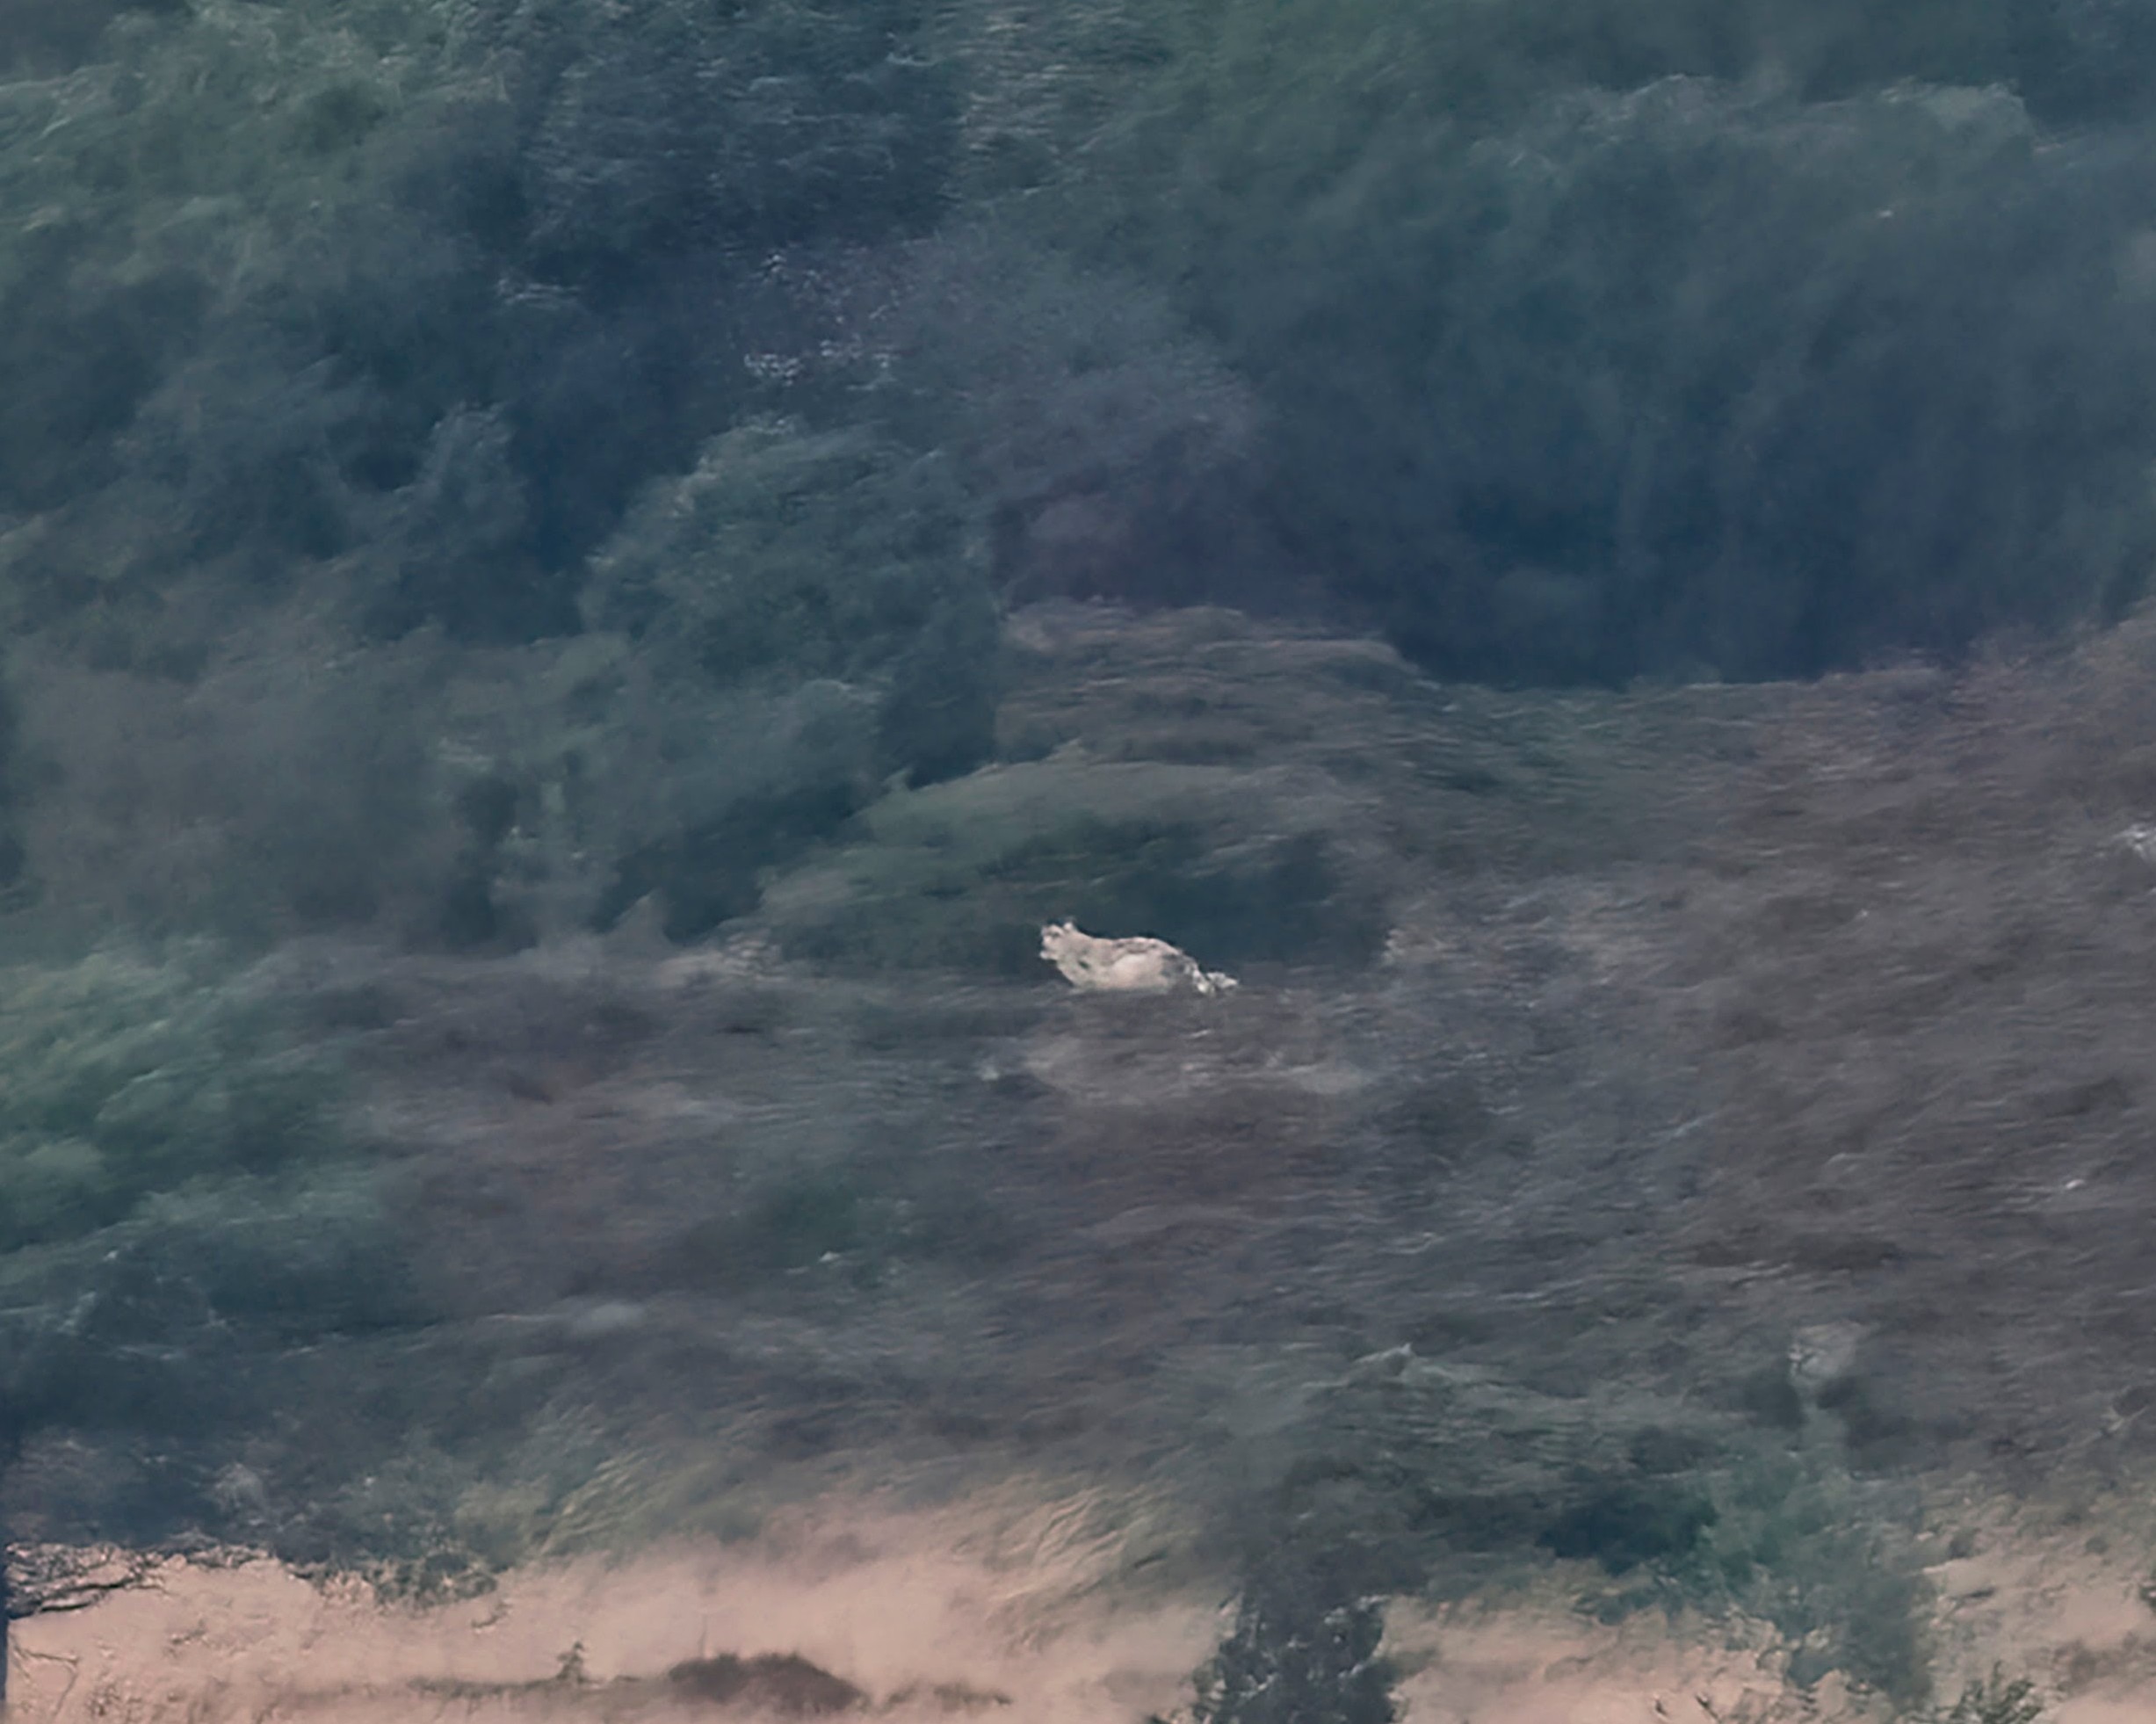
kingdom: Animalia
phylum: Chordata
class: Mammalia
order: Carnivora
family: Canidae
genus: Canis
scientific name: Canis lupus
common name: Ulv
